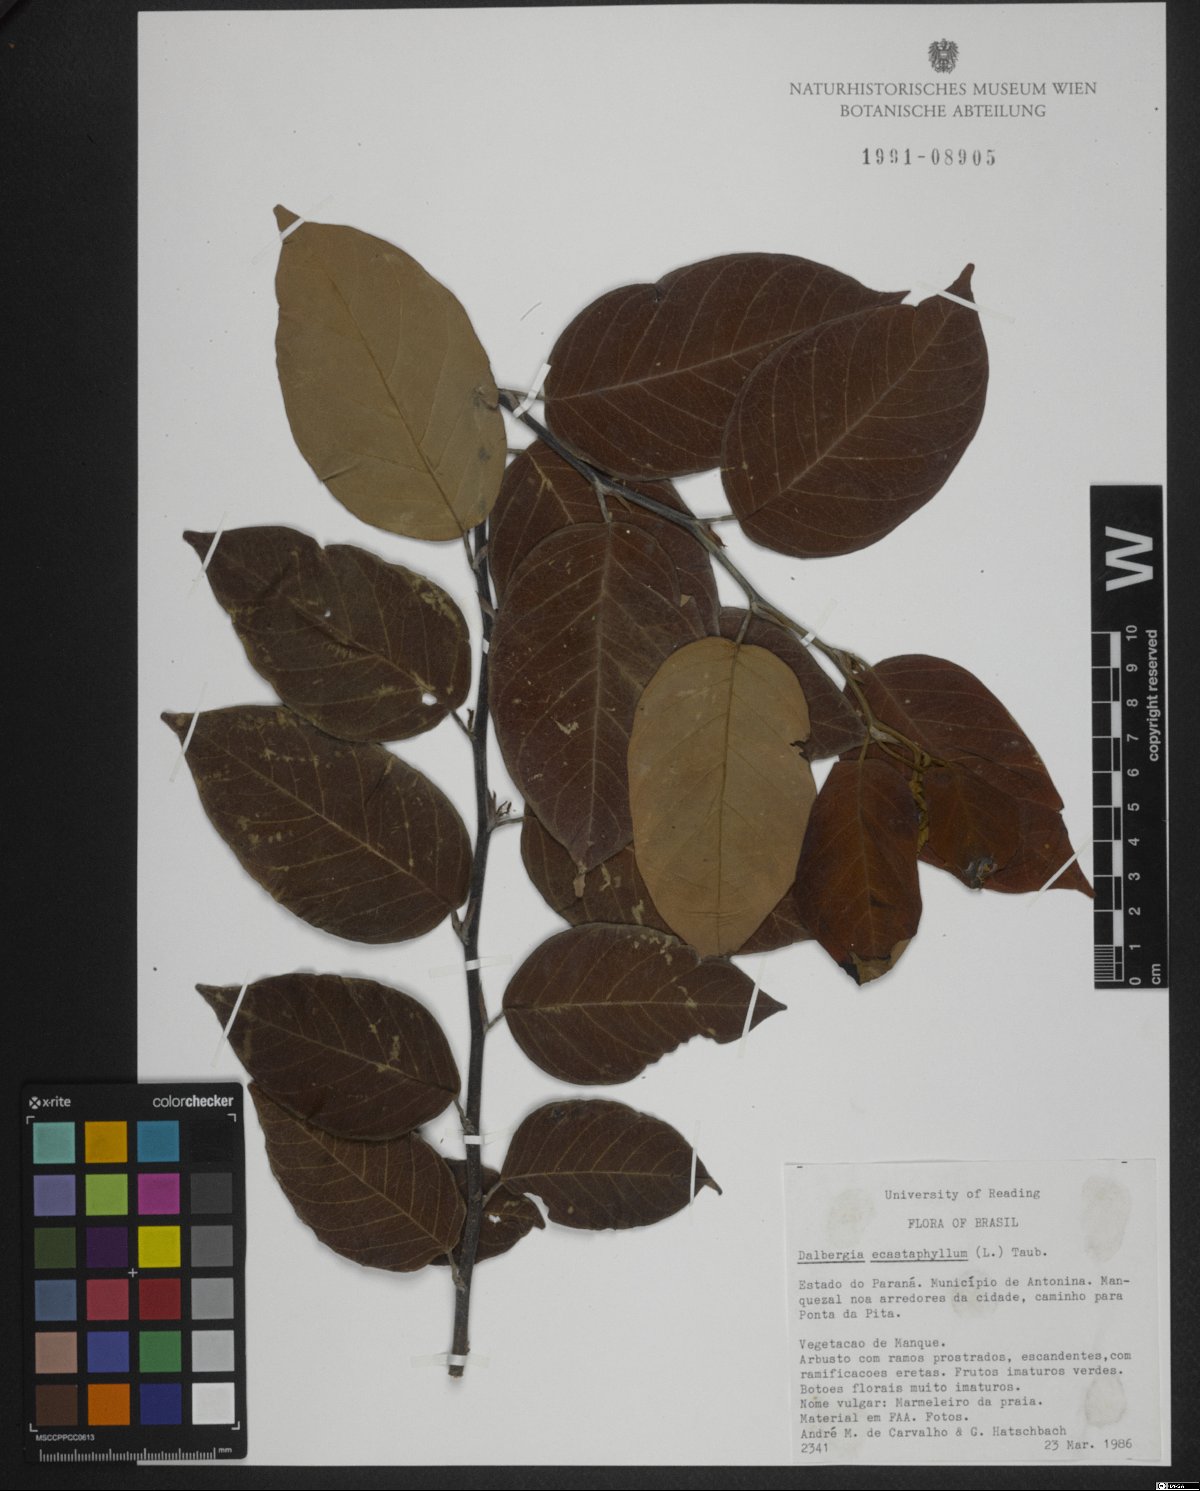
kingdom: Plantae
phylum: Tracheophyta
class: Magnoliopsida
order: Fabales
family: Fabaceae
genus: Dalbergia
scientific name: Dalbergia ecastaphyllum
